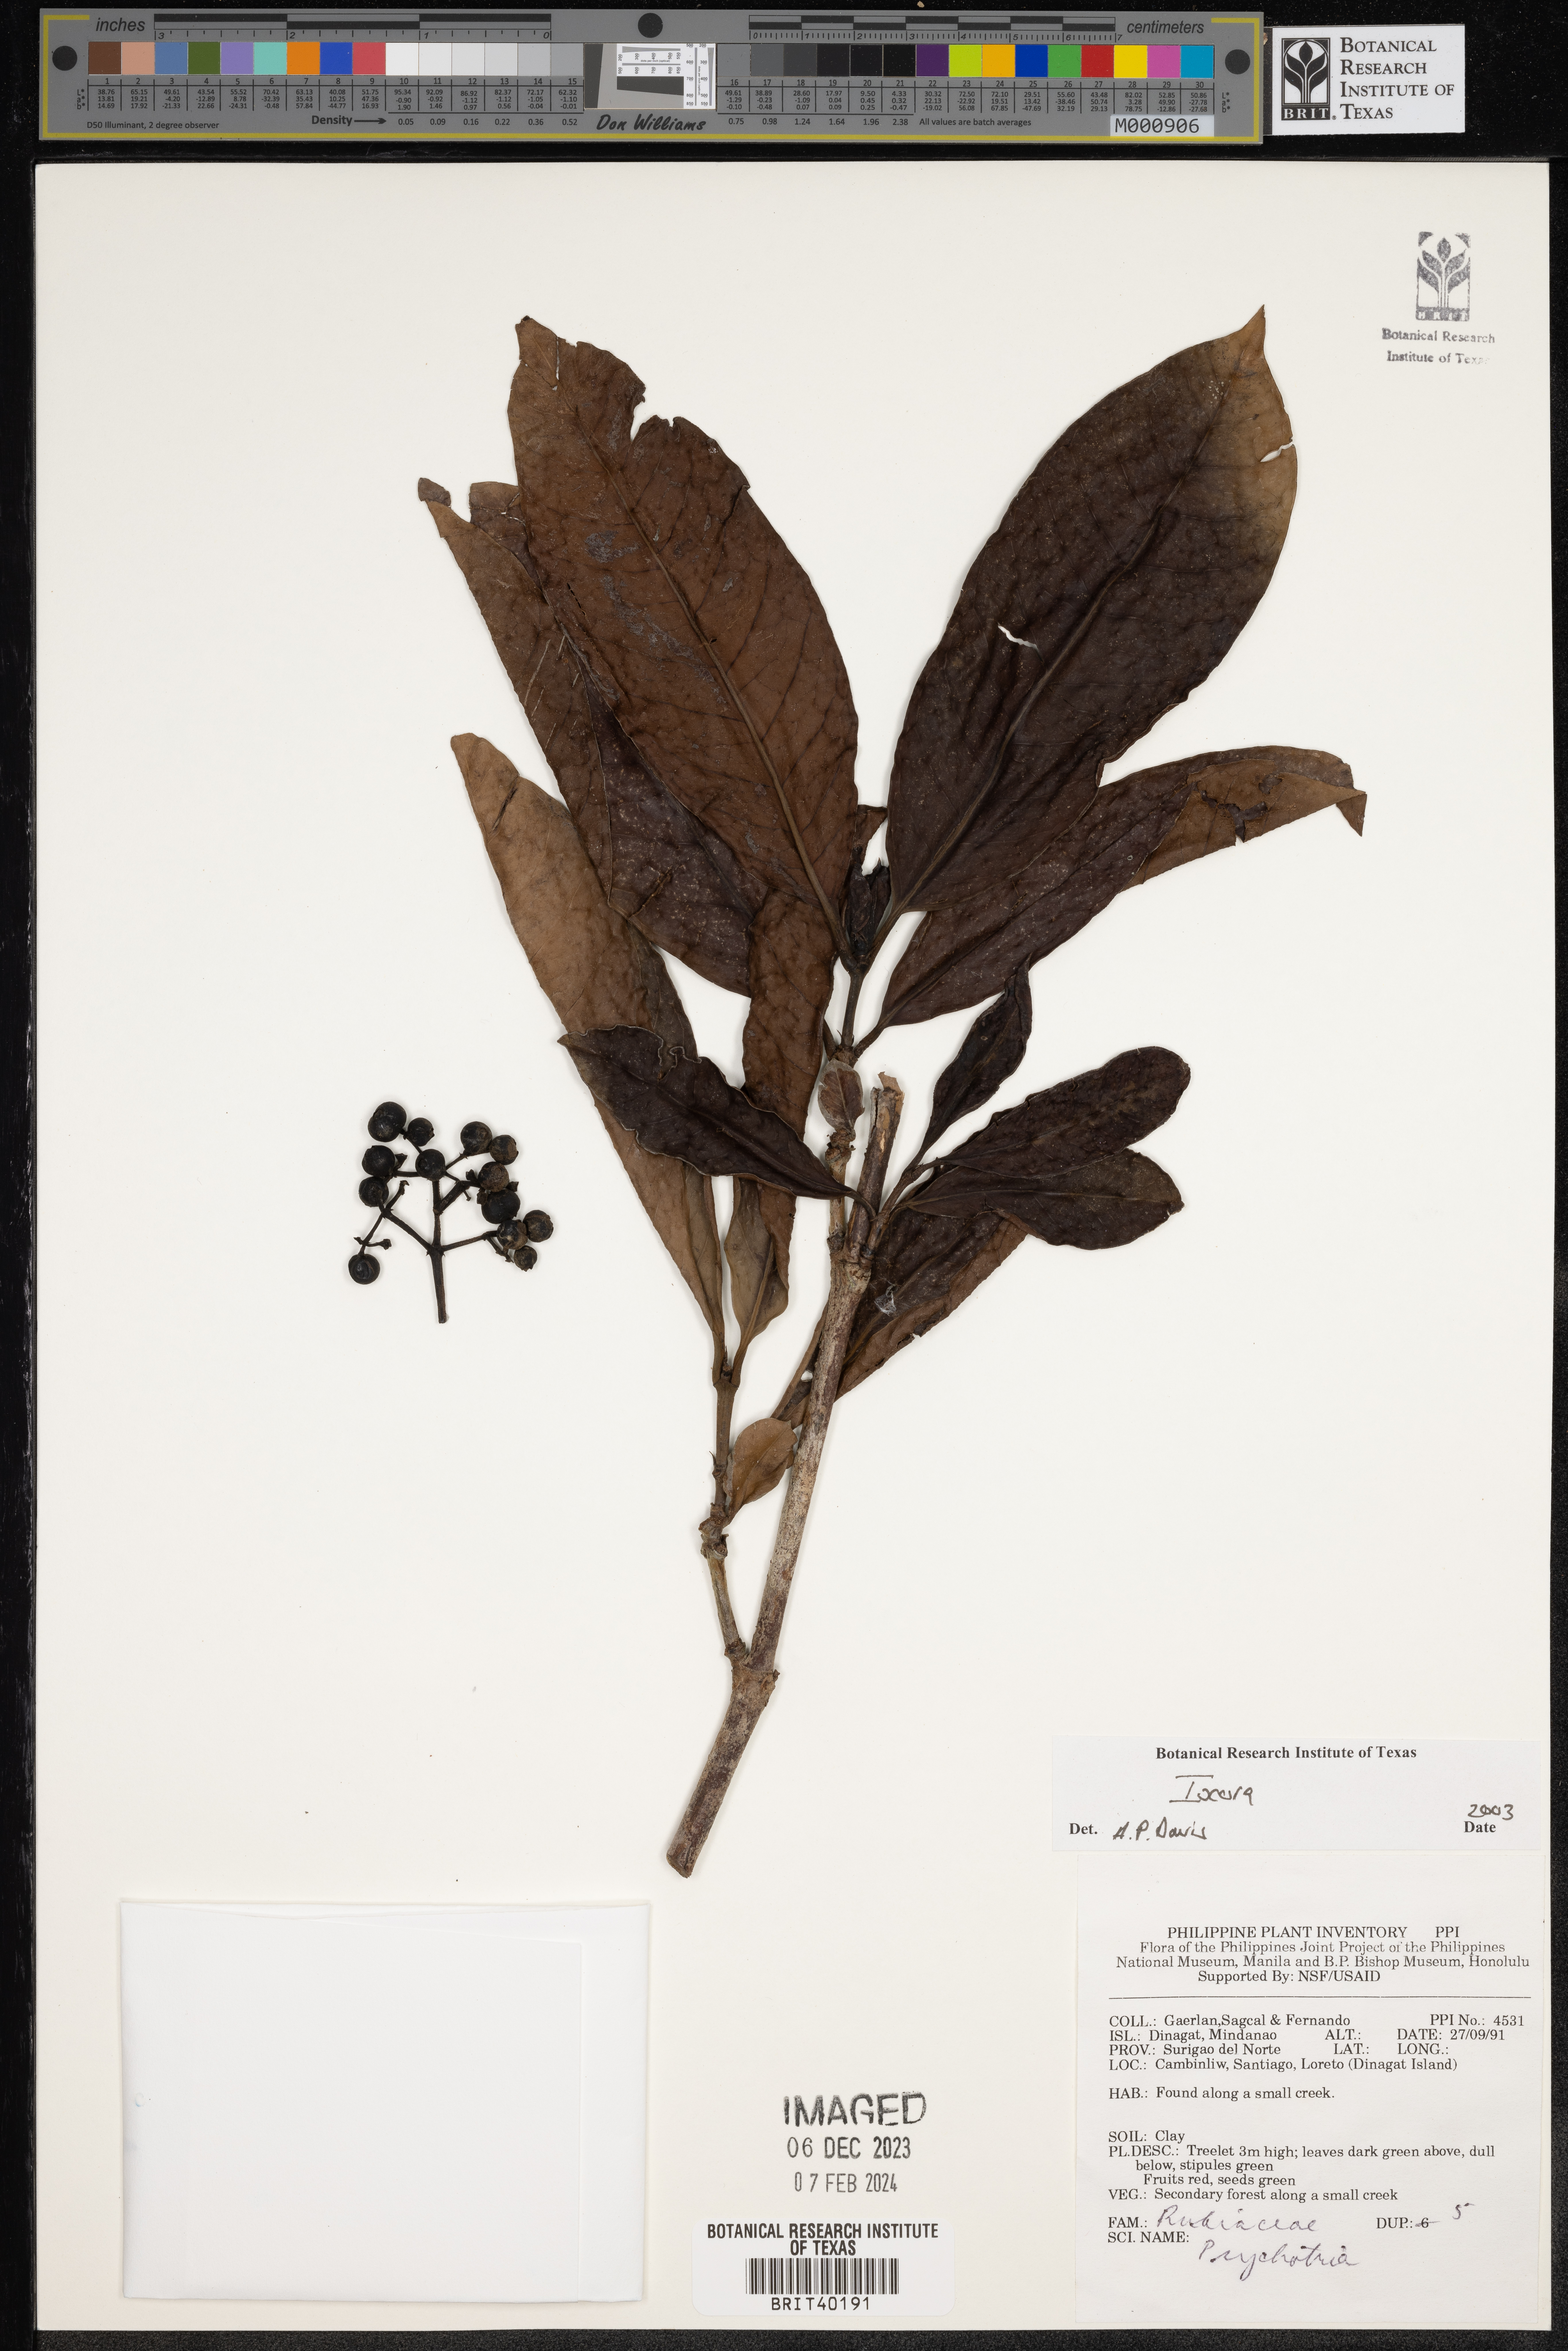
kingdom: Plantae
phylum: Tracheophyta
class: Magnoliopsida
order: Gentianales
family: Rubiaceae
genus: Ixora
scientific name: Ixora
